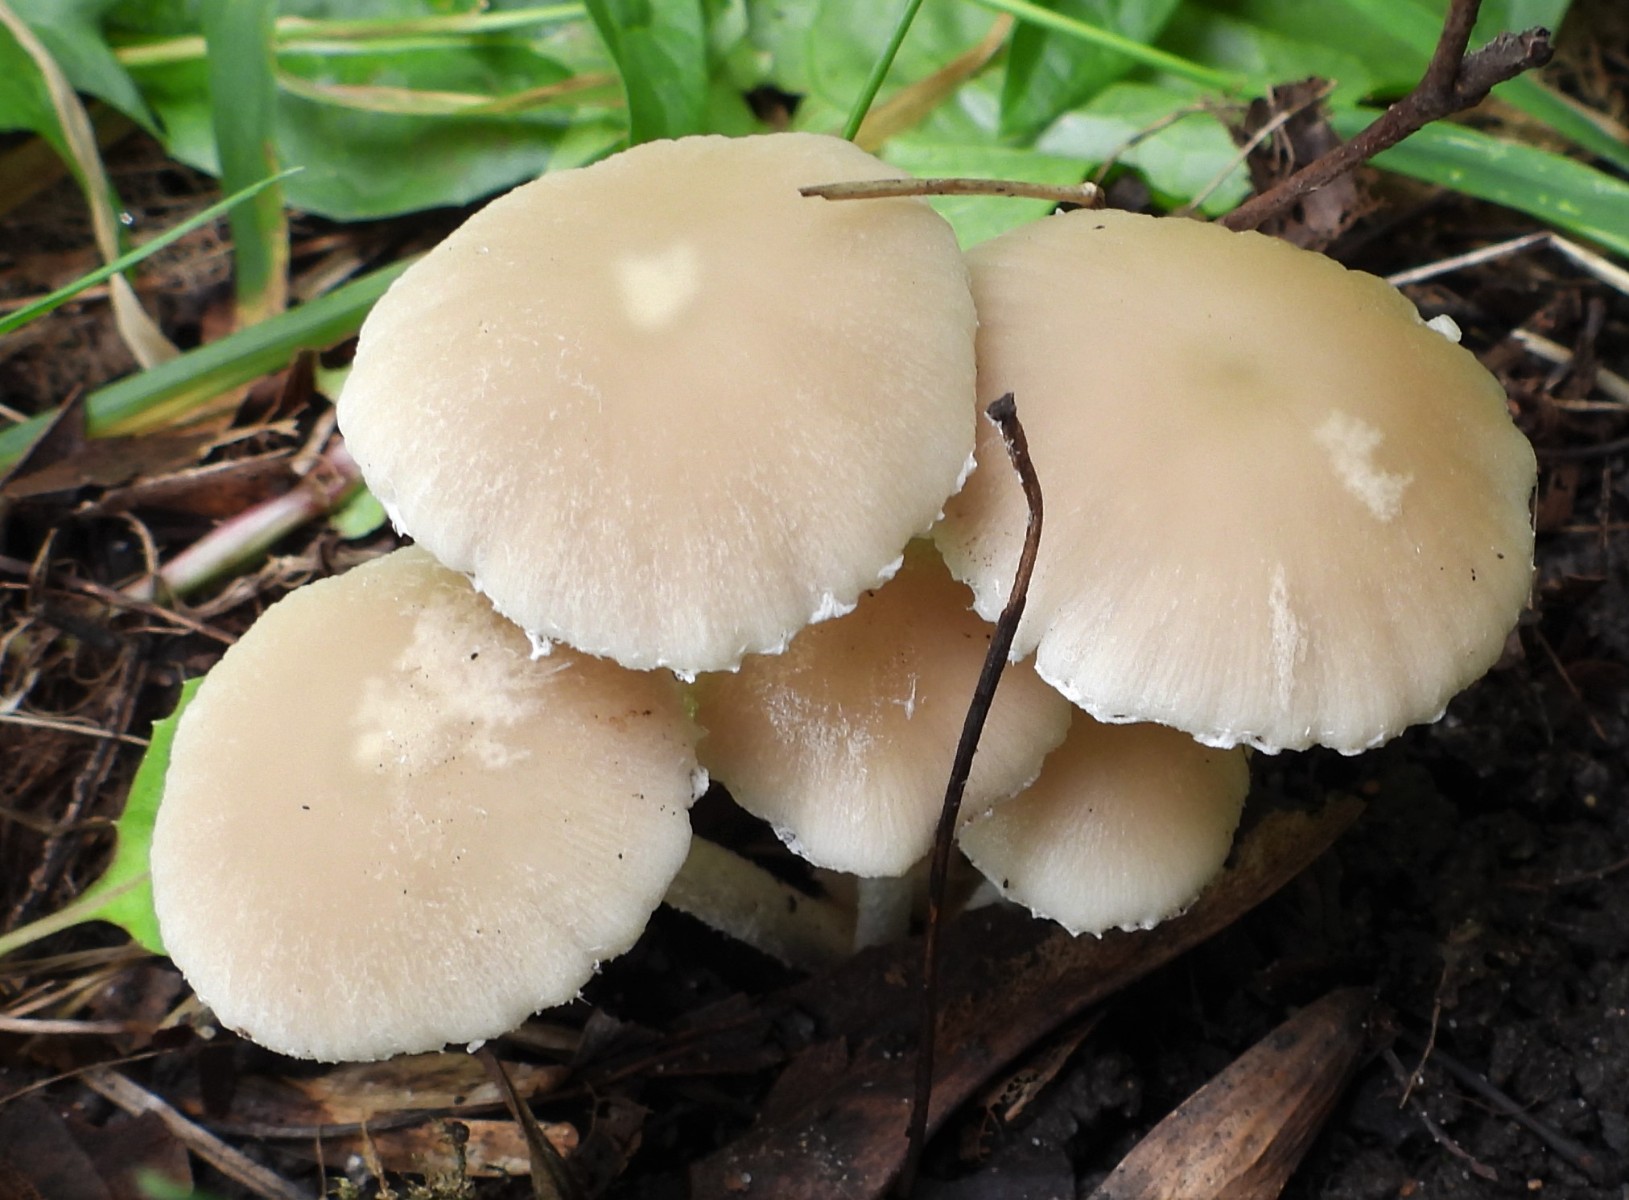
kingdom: Fungi
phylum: Basidiomycota
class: Agaricomycetes
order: Agaricales
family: Psathyrellaceae
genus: Candolleomyces
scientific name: Candolleomyces candolleanus
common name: Candolles mørkhat
